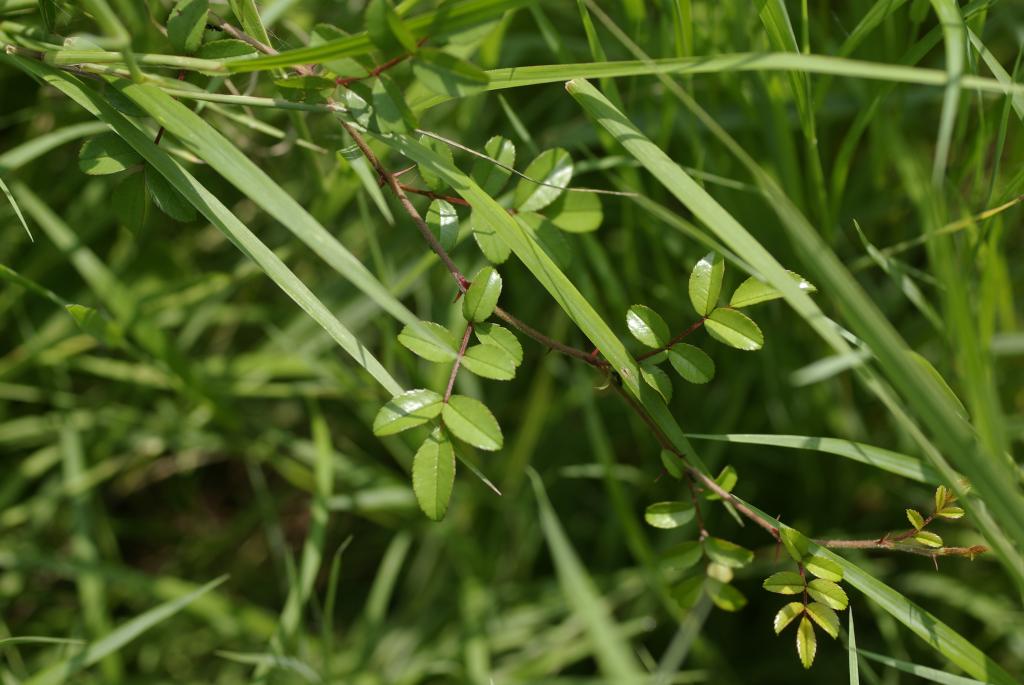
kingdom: Plantae
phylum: Tracheophyta
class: Magnoliopsida
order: Rosales
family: Rosaceae
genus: Rosa
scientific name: Rosa bracteata
